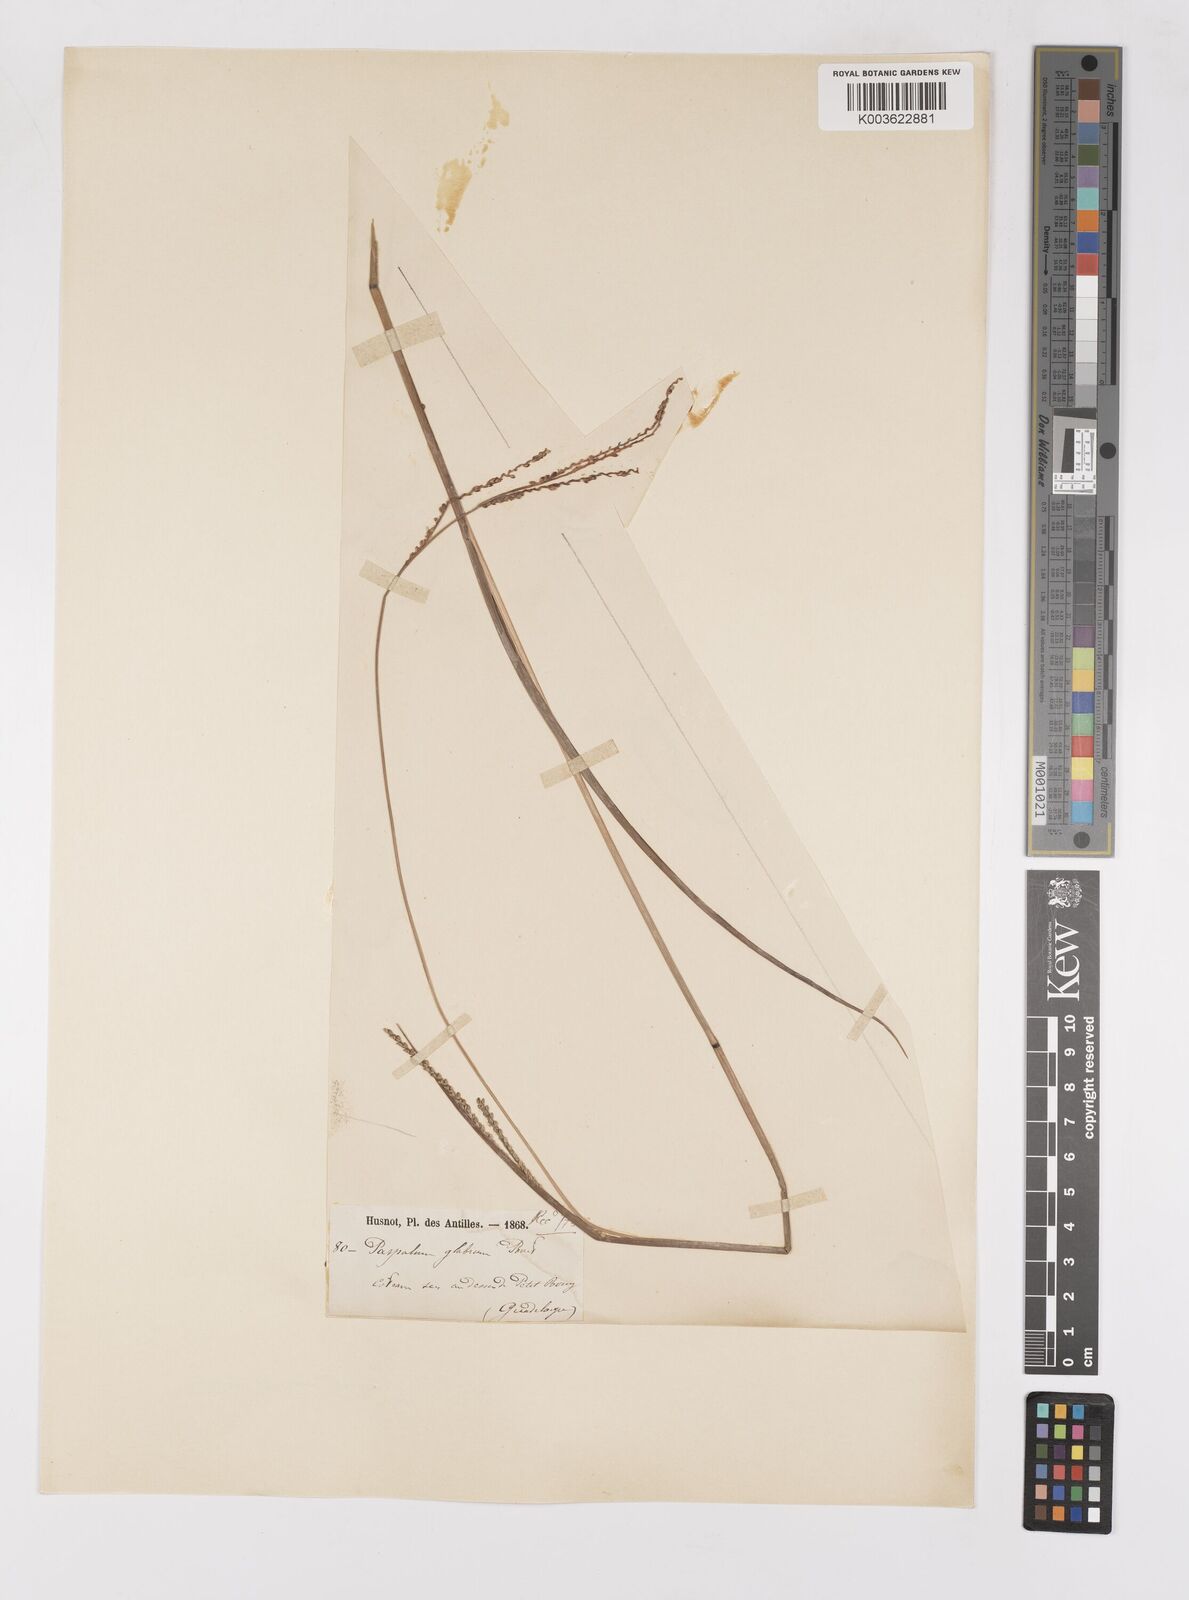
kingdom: Plantae
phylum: Tracheophyta
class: Liliopsida
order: Poales
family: Poaceae
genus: Paspalum
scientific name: Paspalum laxum
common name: Coconut paspalum
